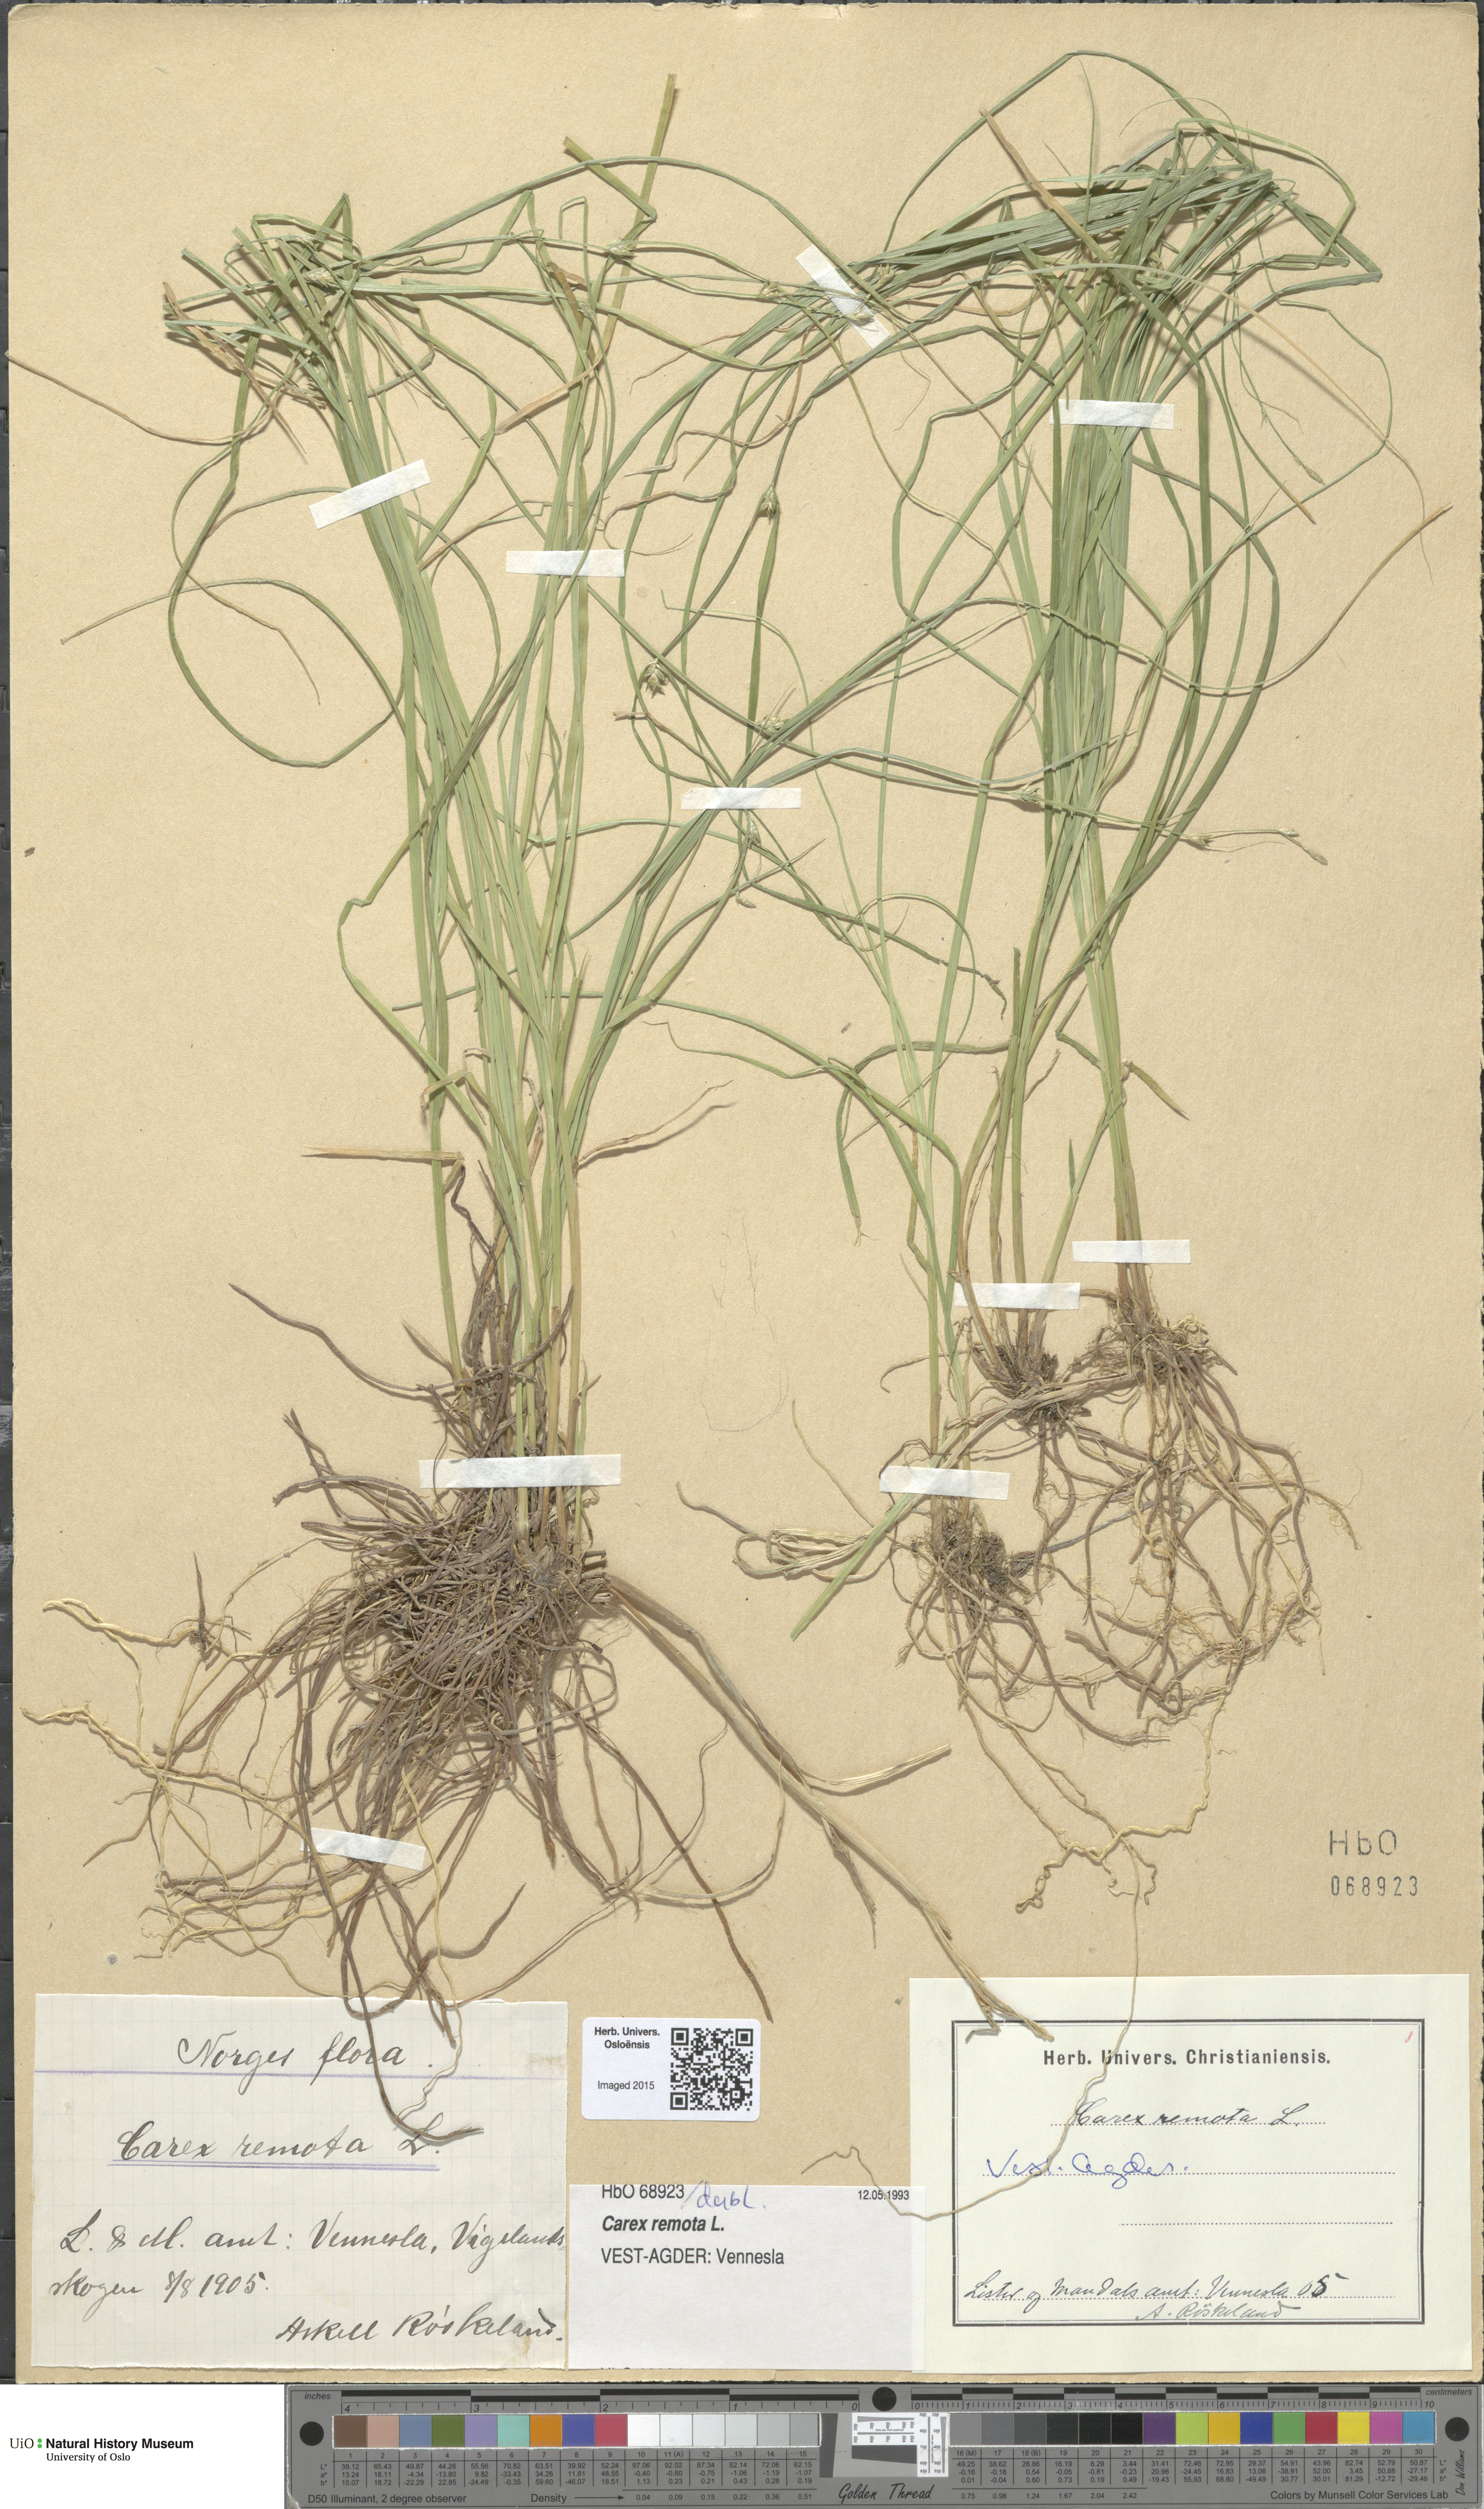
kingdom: Plantae
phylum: Tracheophyta
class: Liliopsida
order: Poales
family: Cyperaceae
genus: Carex
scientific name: Carex remota
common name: Remote sedge
